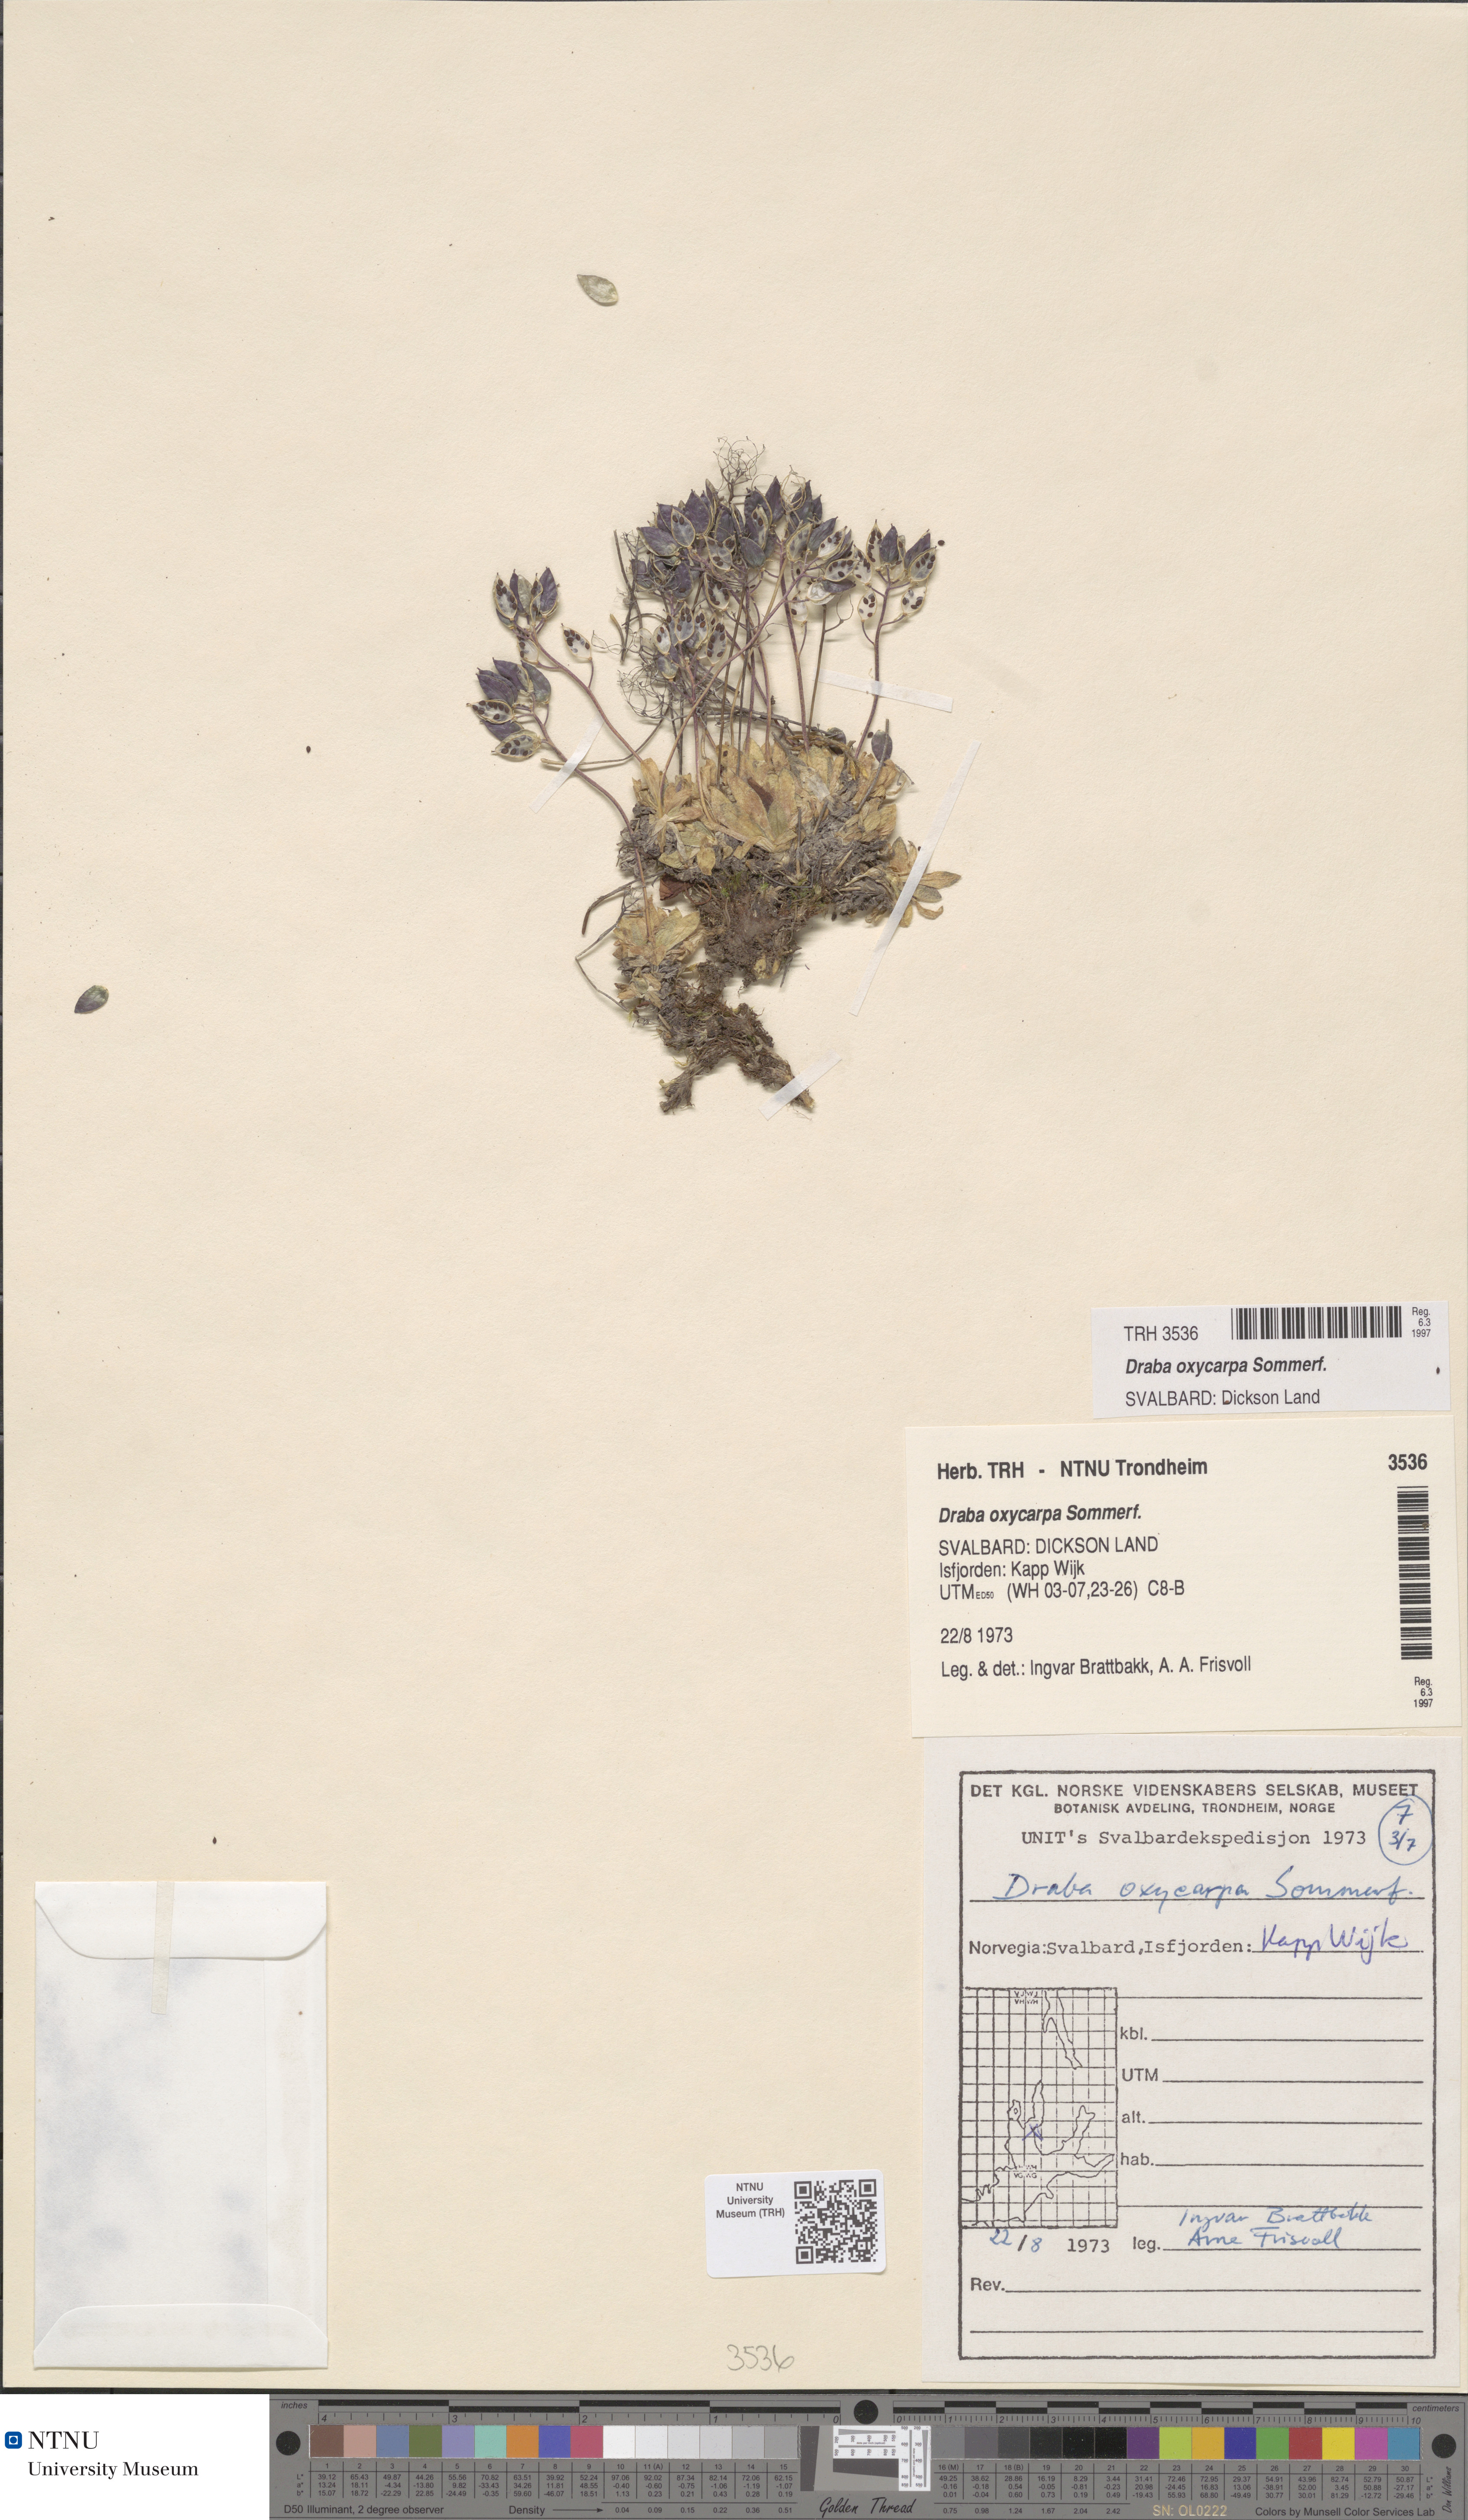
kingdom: Plantae
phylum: Tracheophyta
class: Magnoliopsida
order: Brassicales
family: Brassicaceae
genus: Draba
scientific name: Draba oxycarpa
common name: Sharp-fruited whitlow-grass
